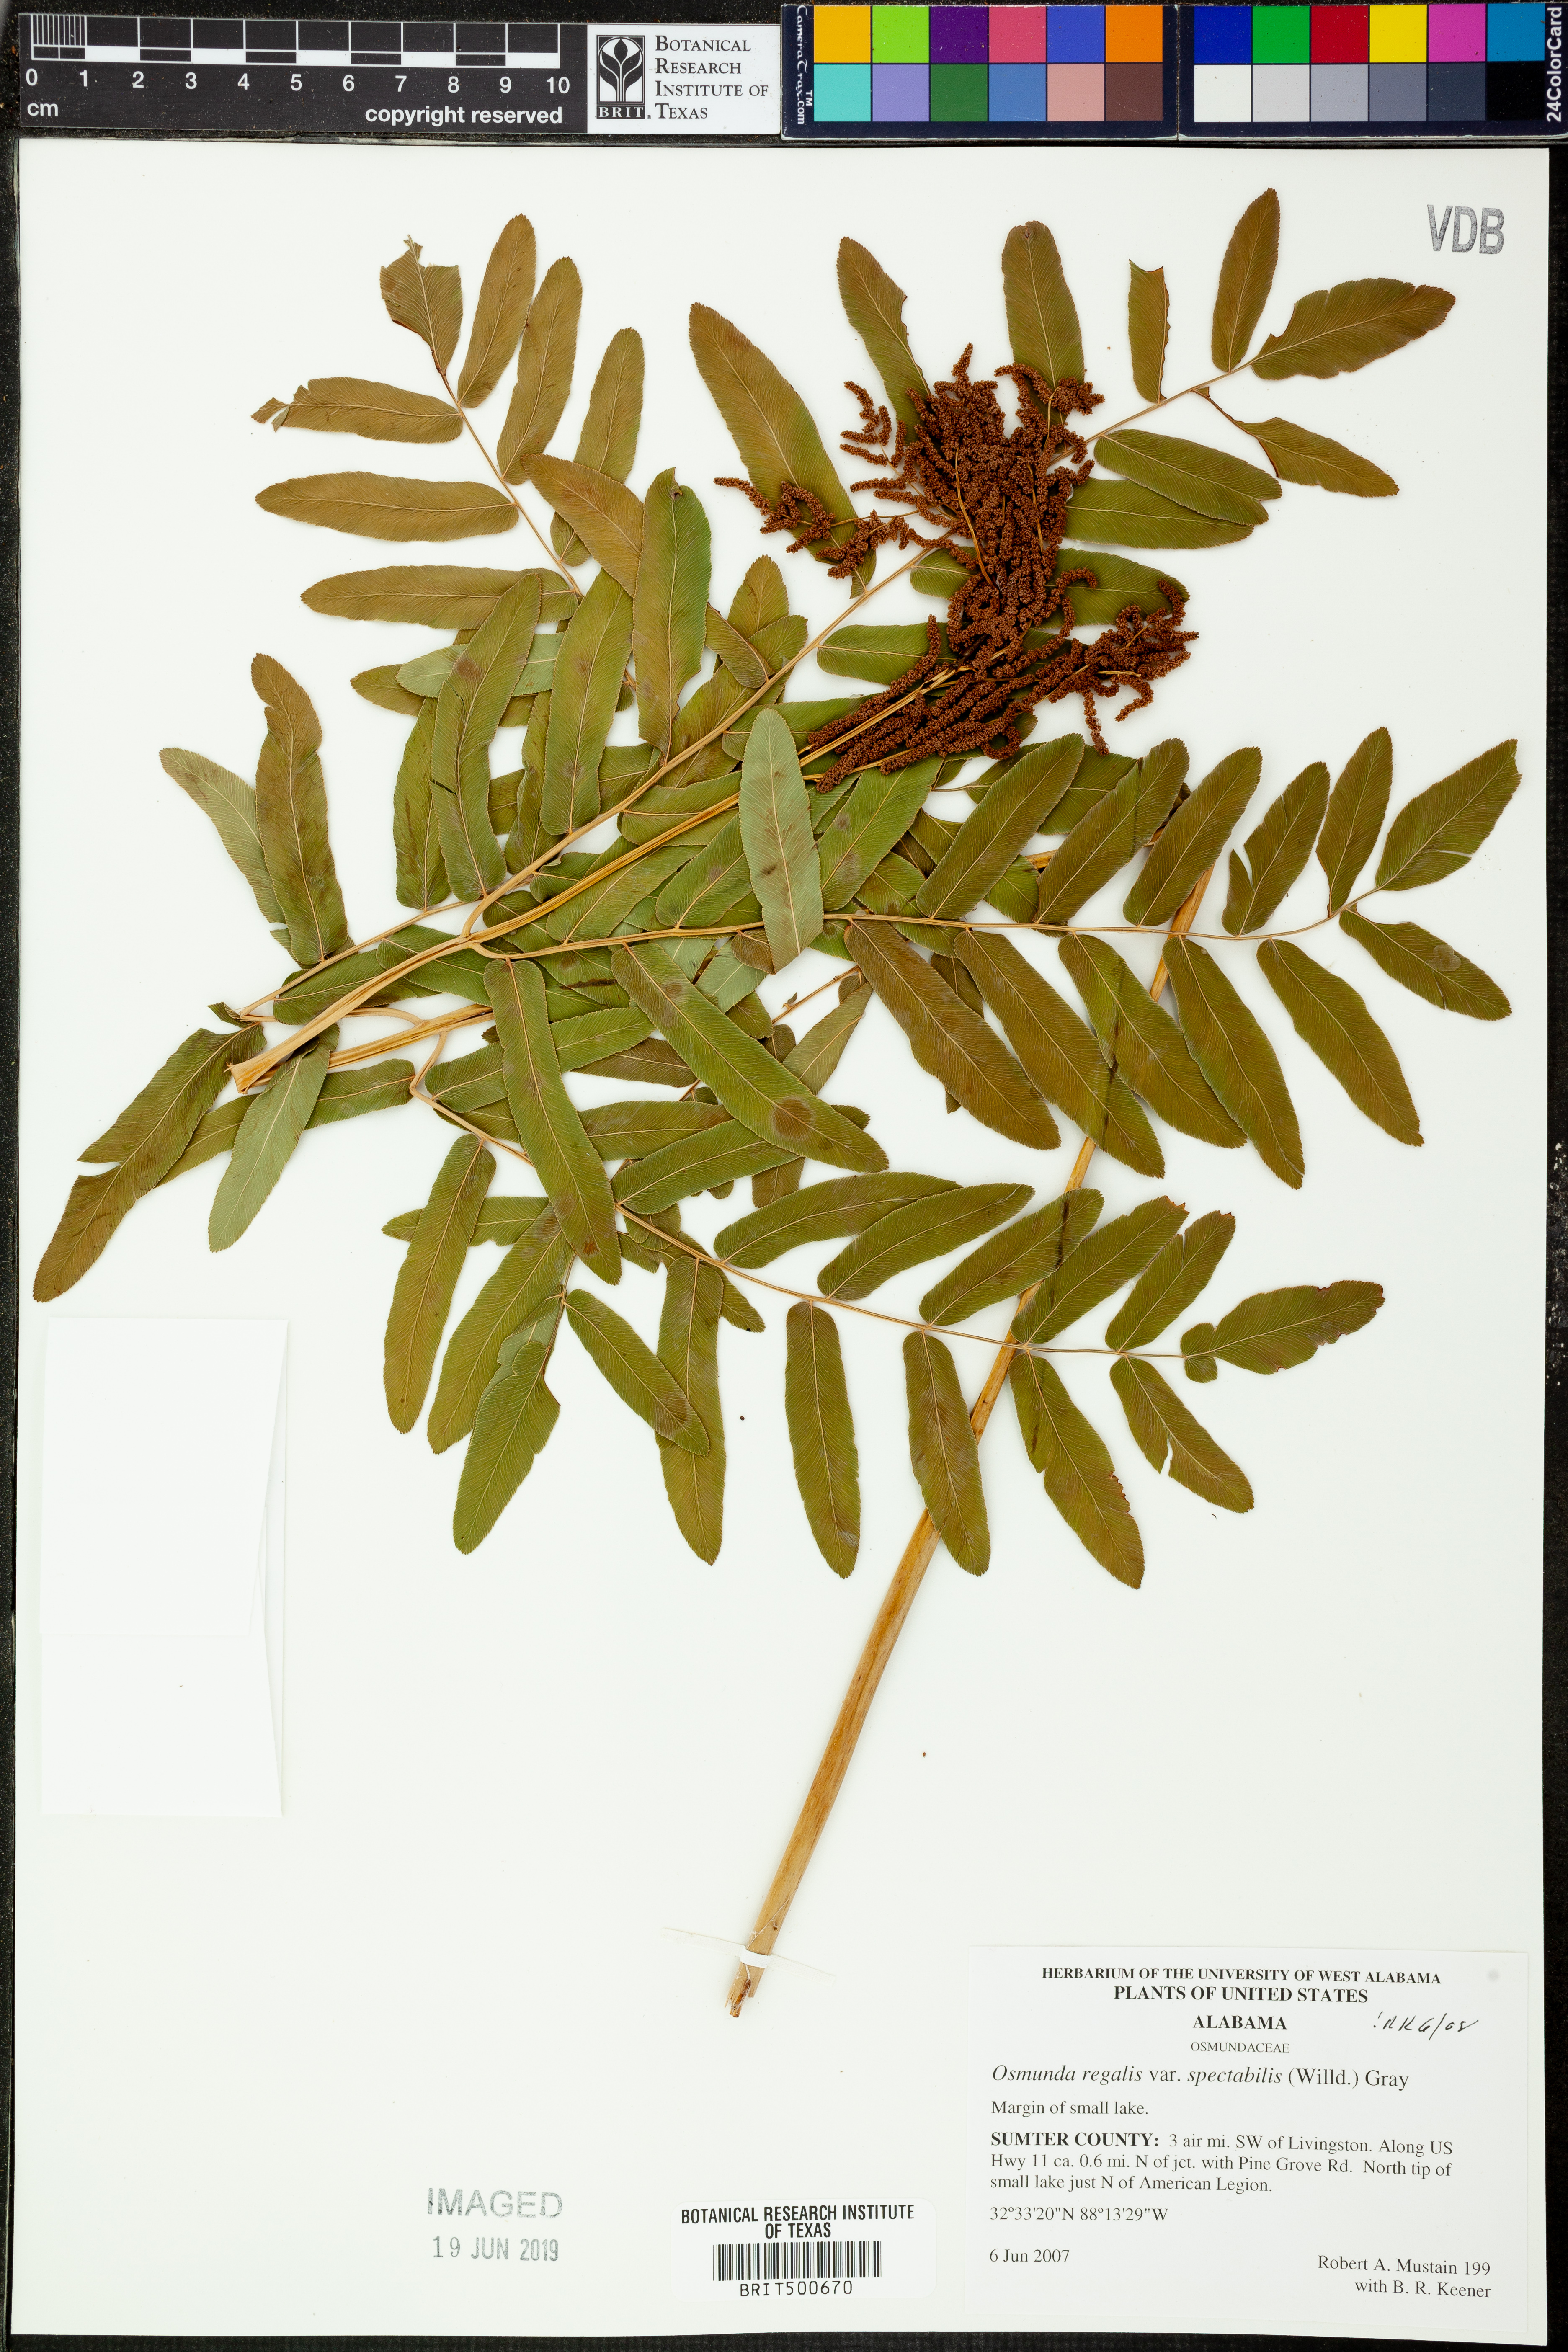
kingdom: Plantae
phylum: Tracheophyta
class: Polypodiopsida
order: Osmundales
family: Osmundaceae
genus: Osmunda
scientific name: Osmunda spectabilis
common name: American royal fern
